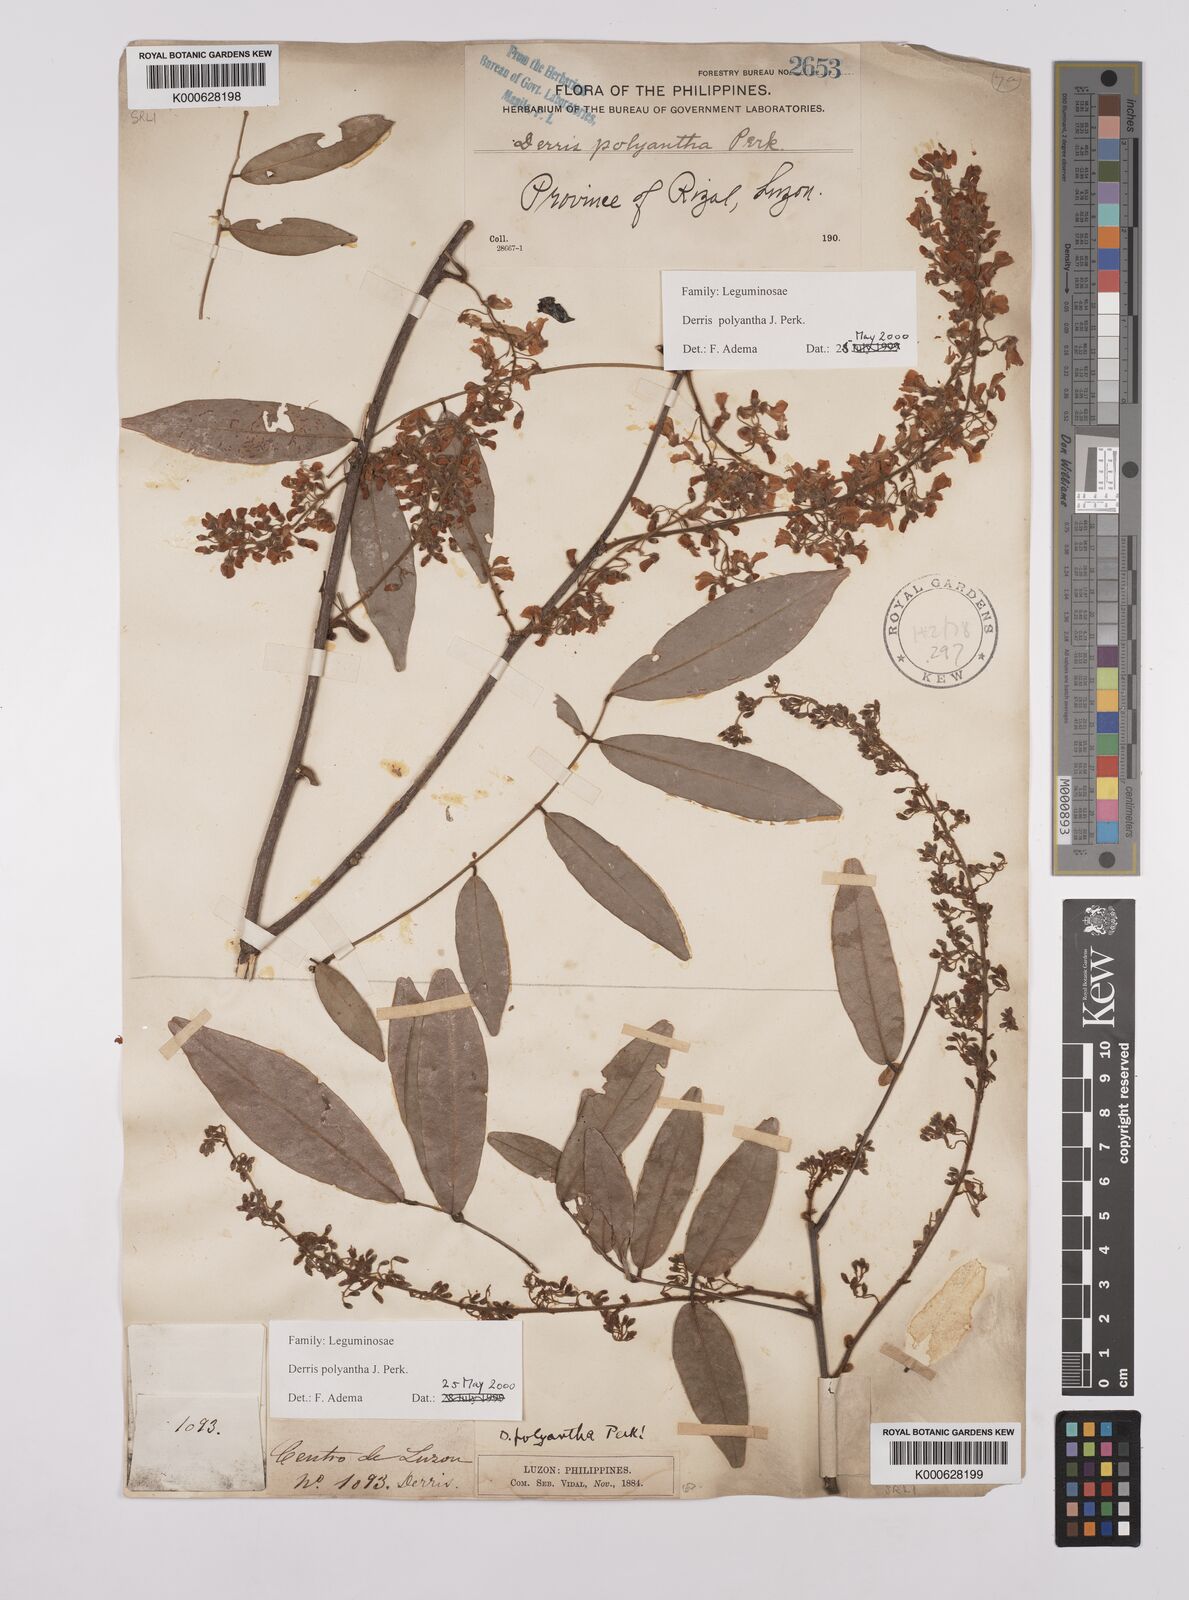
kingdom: Plantae
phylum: Tracheophyta
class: Magnoliopsida
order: Fabales
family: Fabaceae
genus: Derris
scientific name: Derris polyantha
